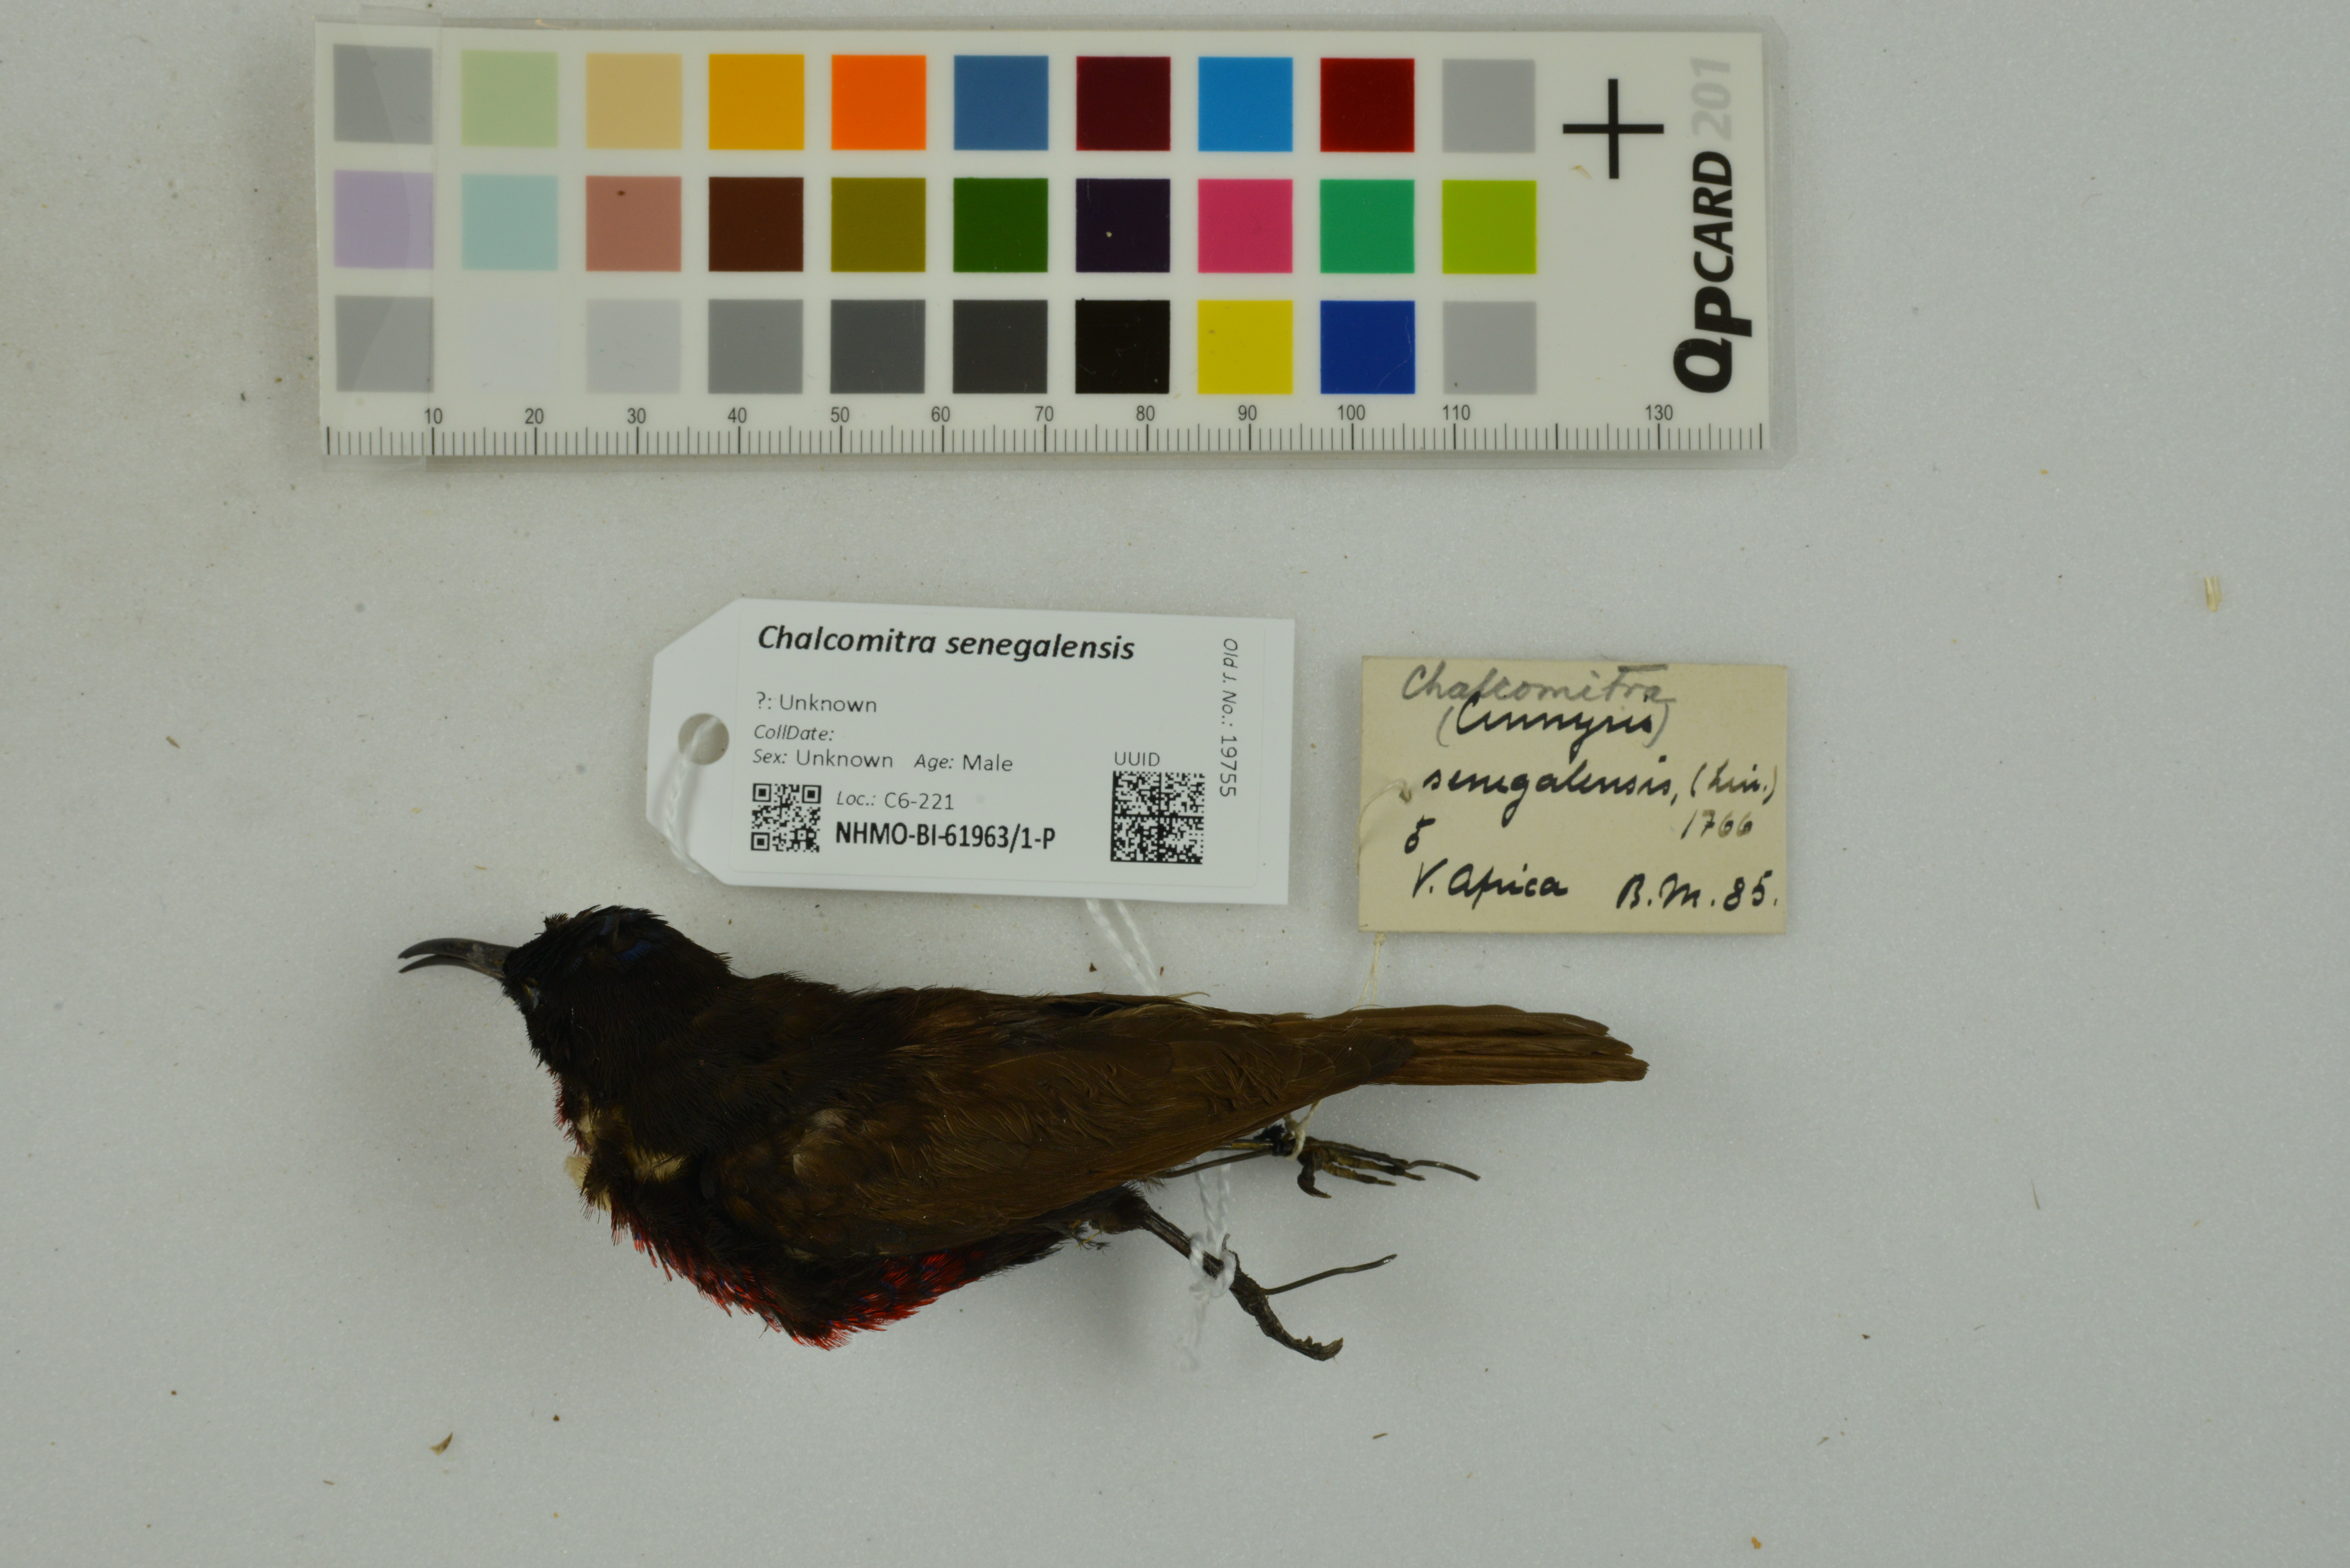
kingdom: Animalia
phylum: Chordata
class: Aves
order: Passeriformes
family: Nectariniidae
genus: Chalcomitra
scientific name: Chalcomitra senegalensis
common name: Scarlet-chested sunbird
